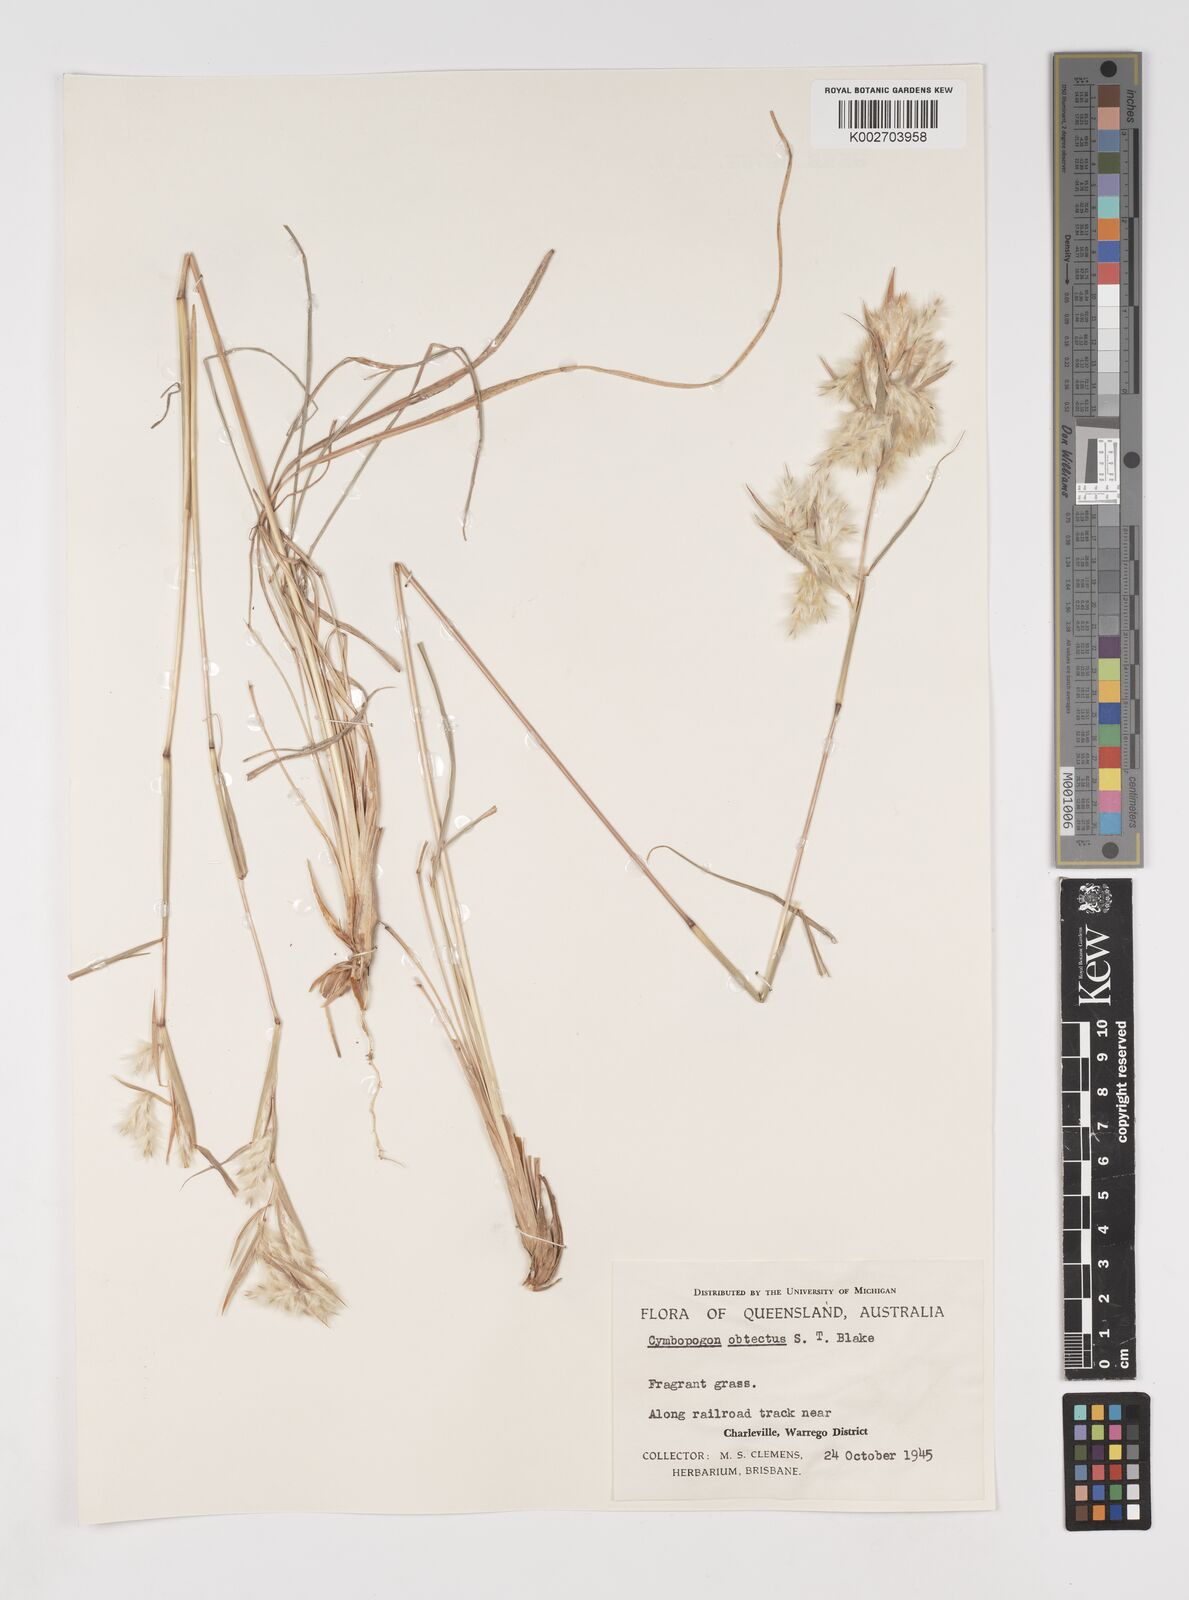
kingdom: Plantae
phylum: Tracheophyta
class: Liliopsida
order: Poales
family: Poaceae
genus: Cymbopogon
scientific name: Cymbopogon obtectus
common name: Silky heads
